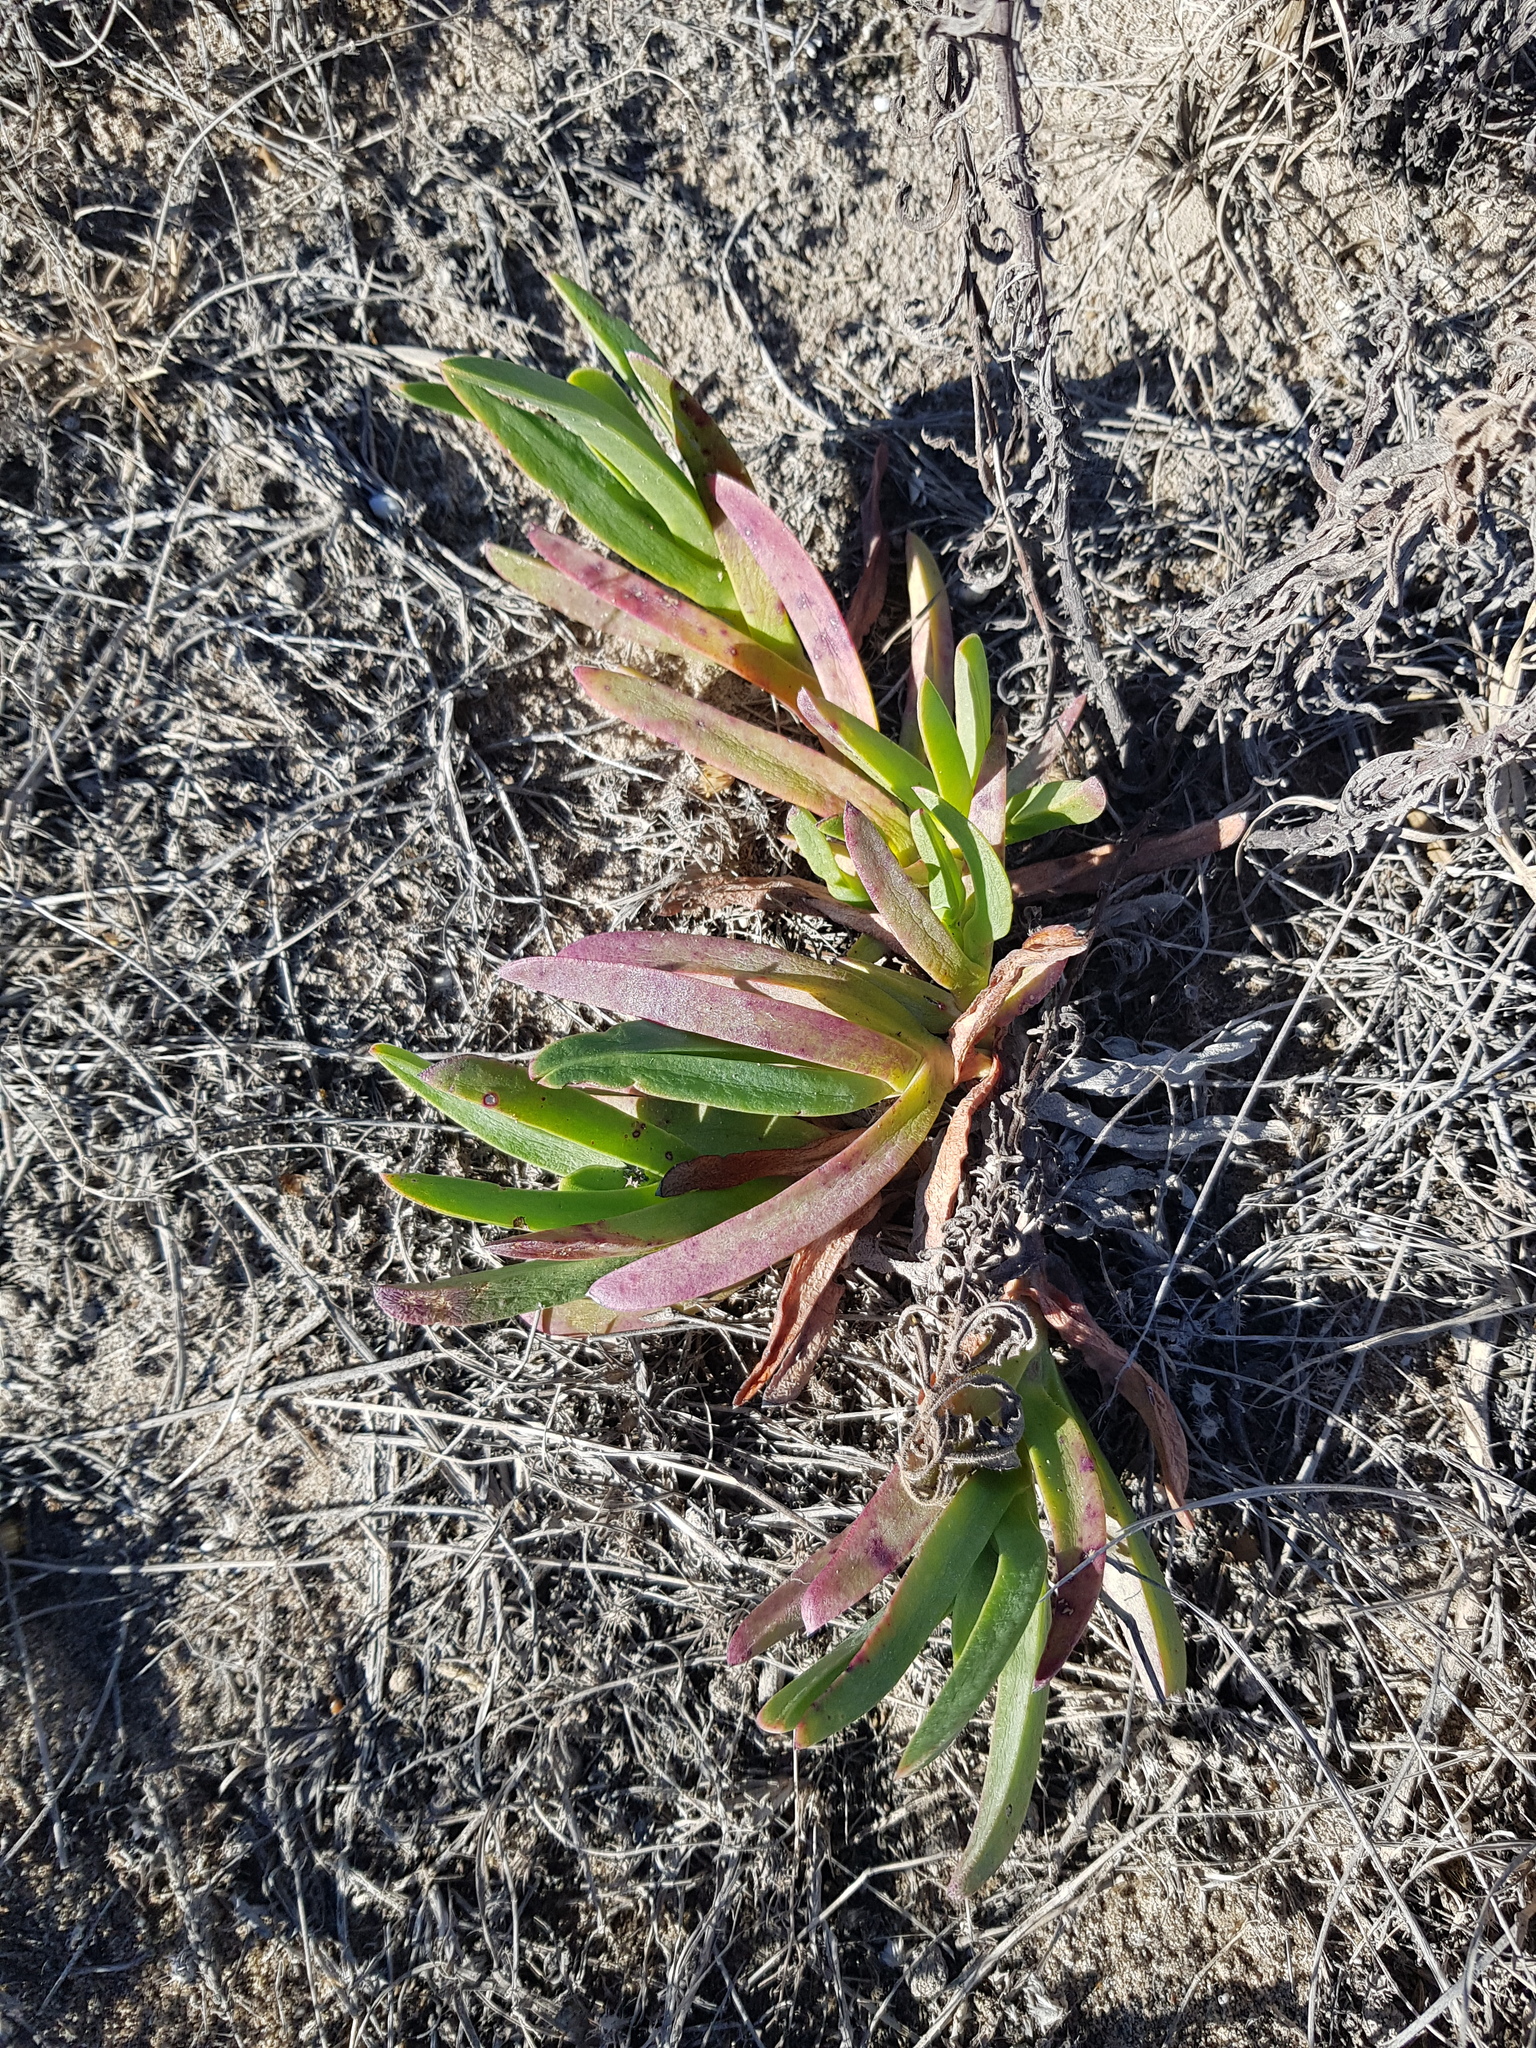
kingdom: Plantae
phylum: Tracheophyta
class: Magnoliopsida
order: Caryophyllales
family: Aizoaceae
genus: Carpobrotus
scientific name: Carpobrotus edulis
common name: Hottentot-fig
